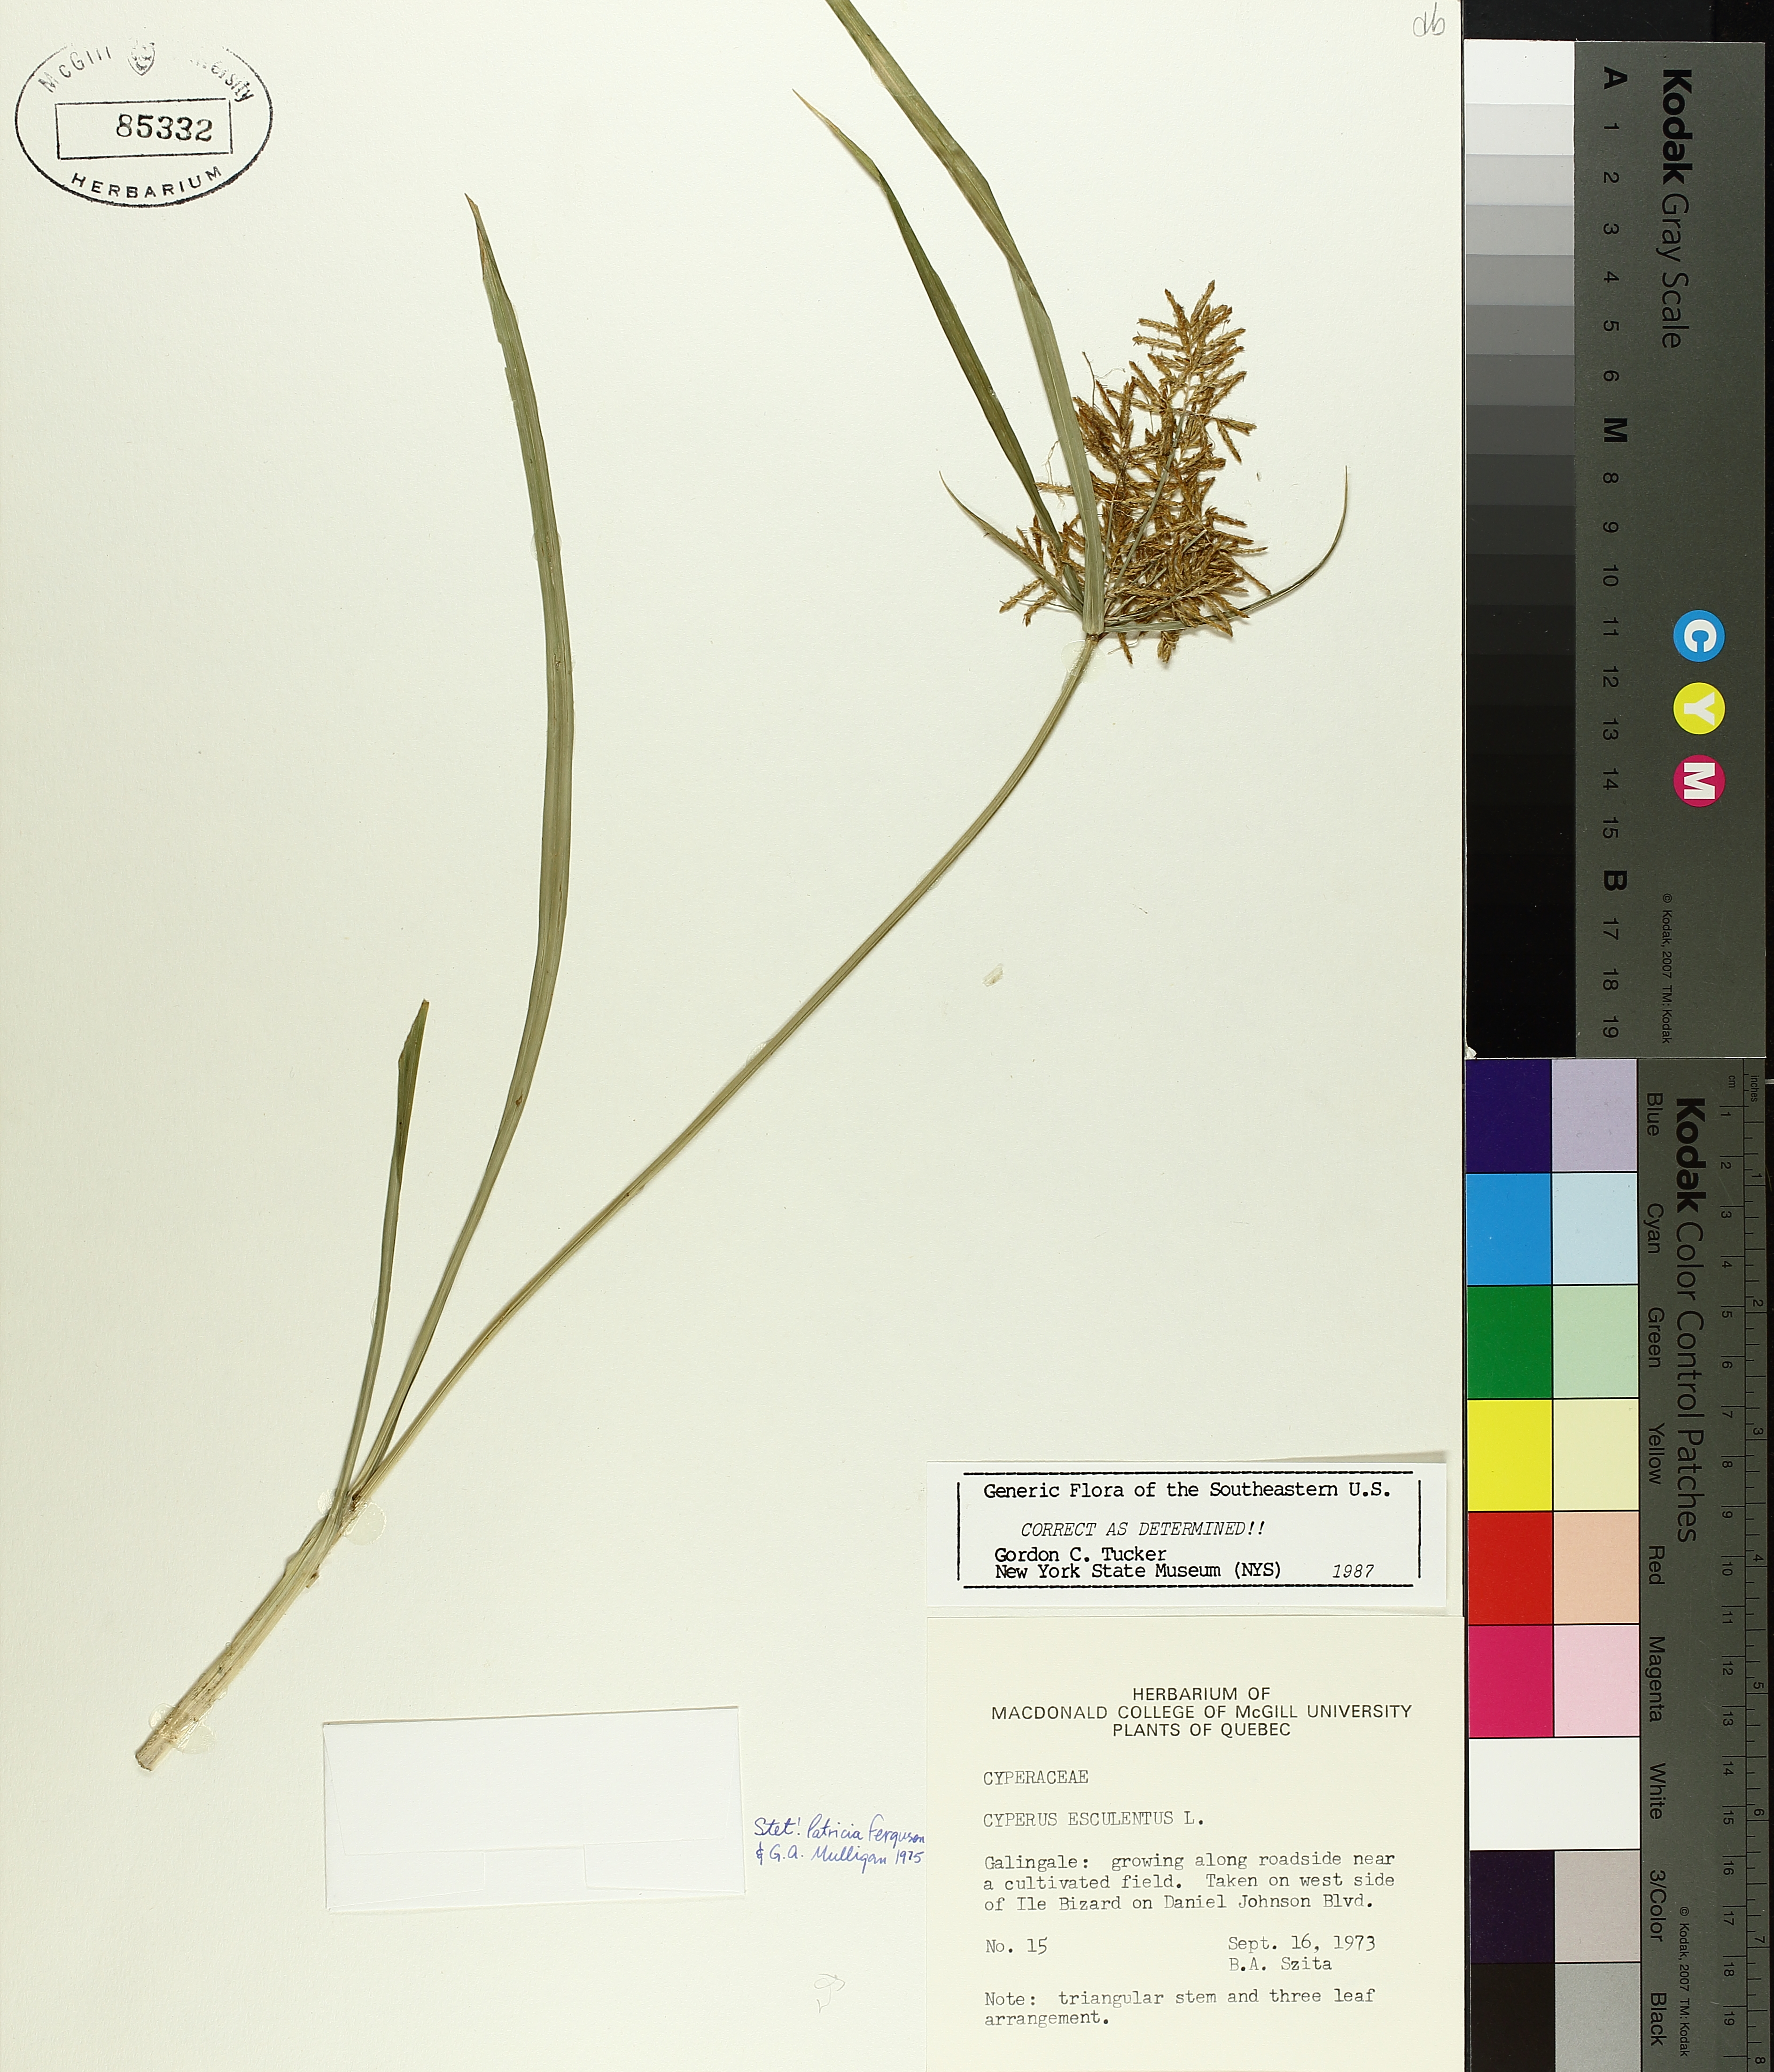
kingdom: Plantae
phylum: Tracheophyta
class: Liliopsida
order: Poales
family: Cyperaceae
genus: Cyperus
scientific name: Cyperus esculentus
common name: Yellow nutsedge
